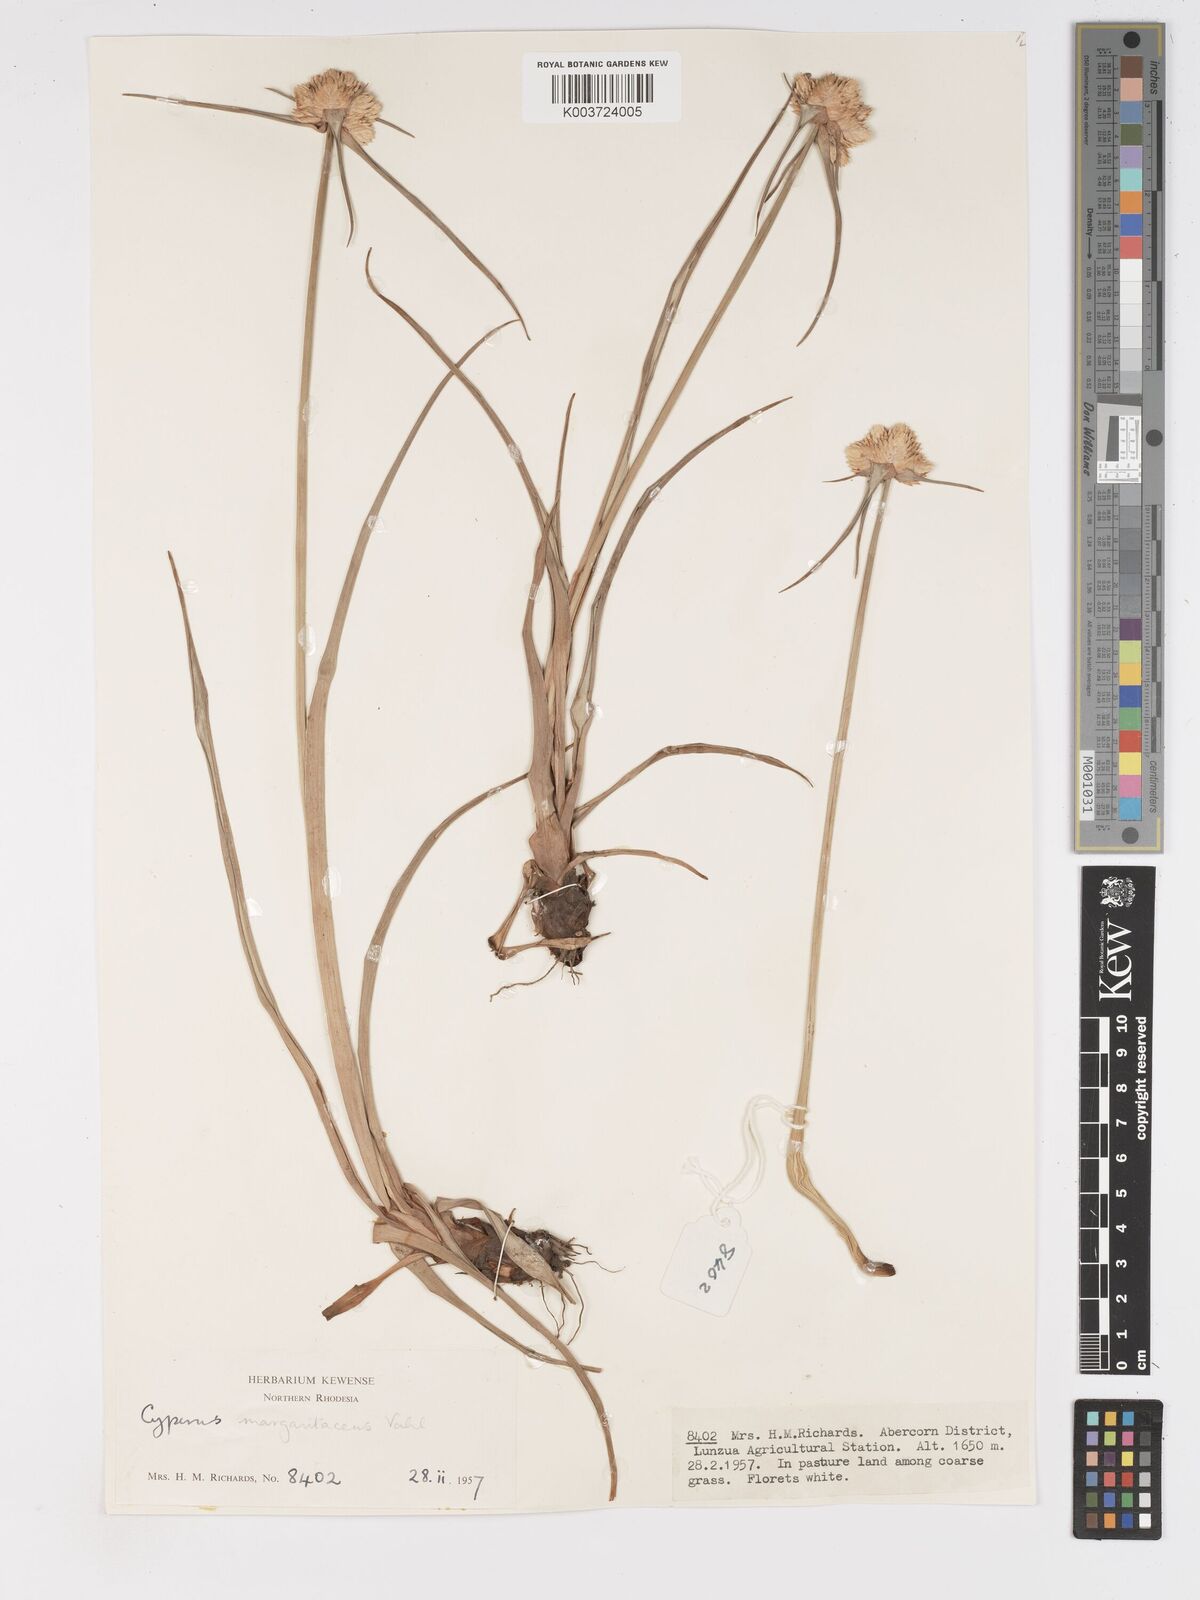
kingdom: Plantae
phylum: Tracheophyta
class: Liliopsida
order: Poales
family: Cyperaceae
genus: Cyperus
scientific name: Cyperus niveus
